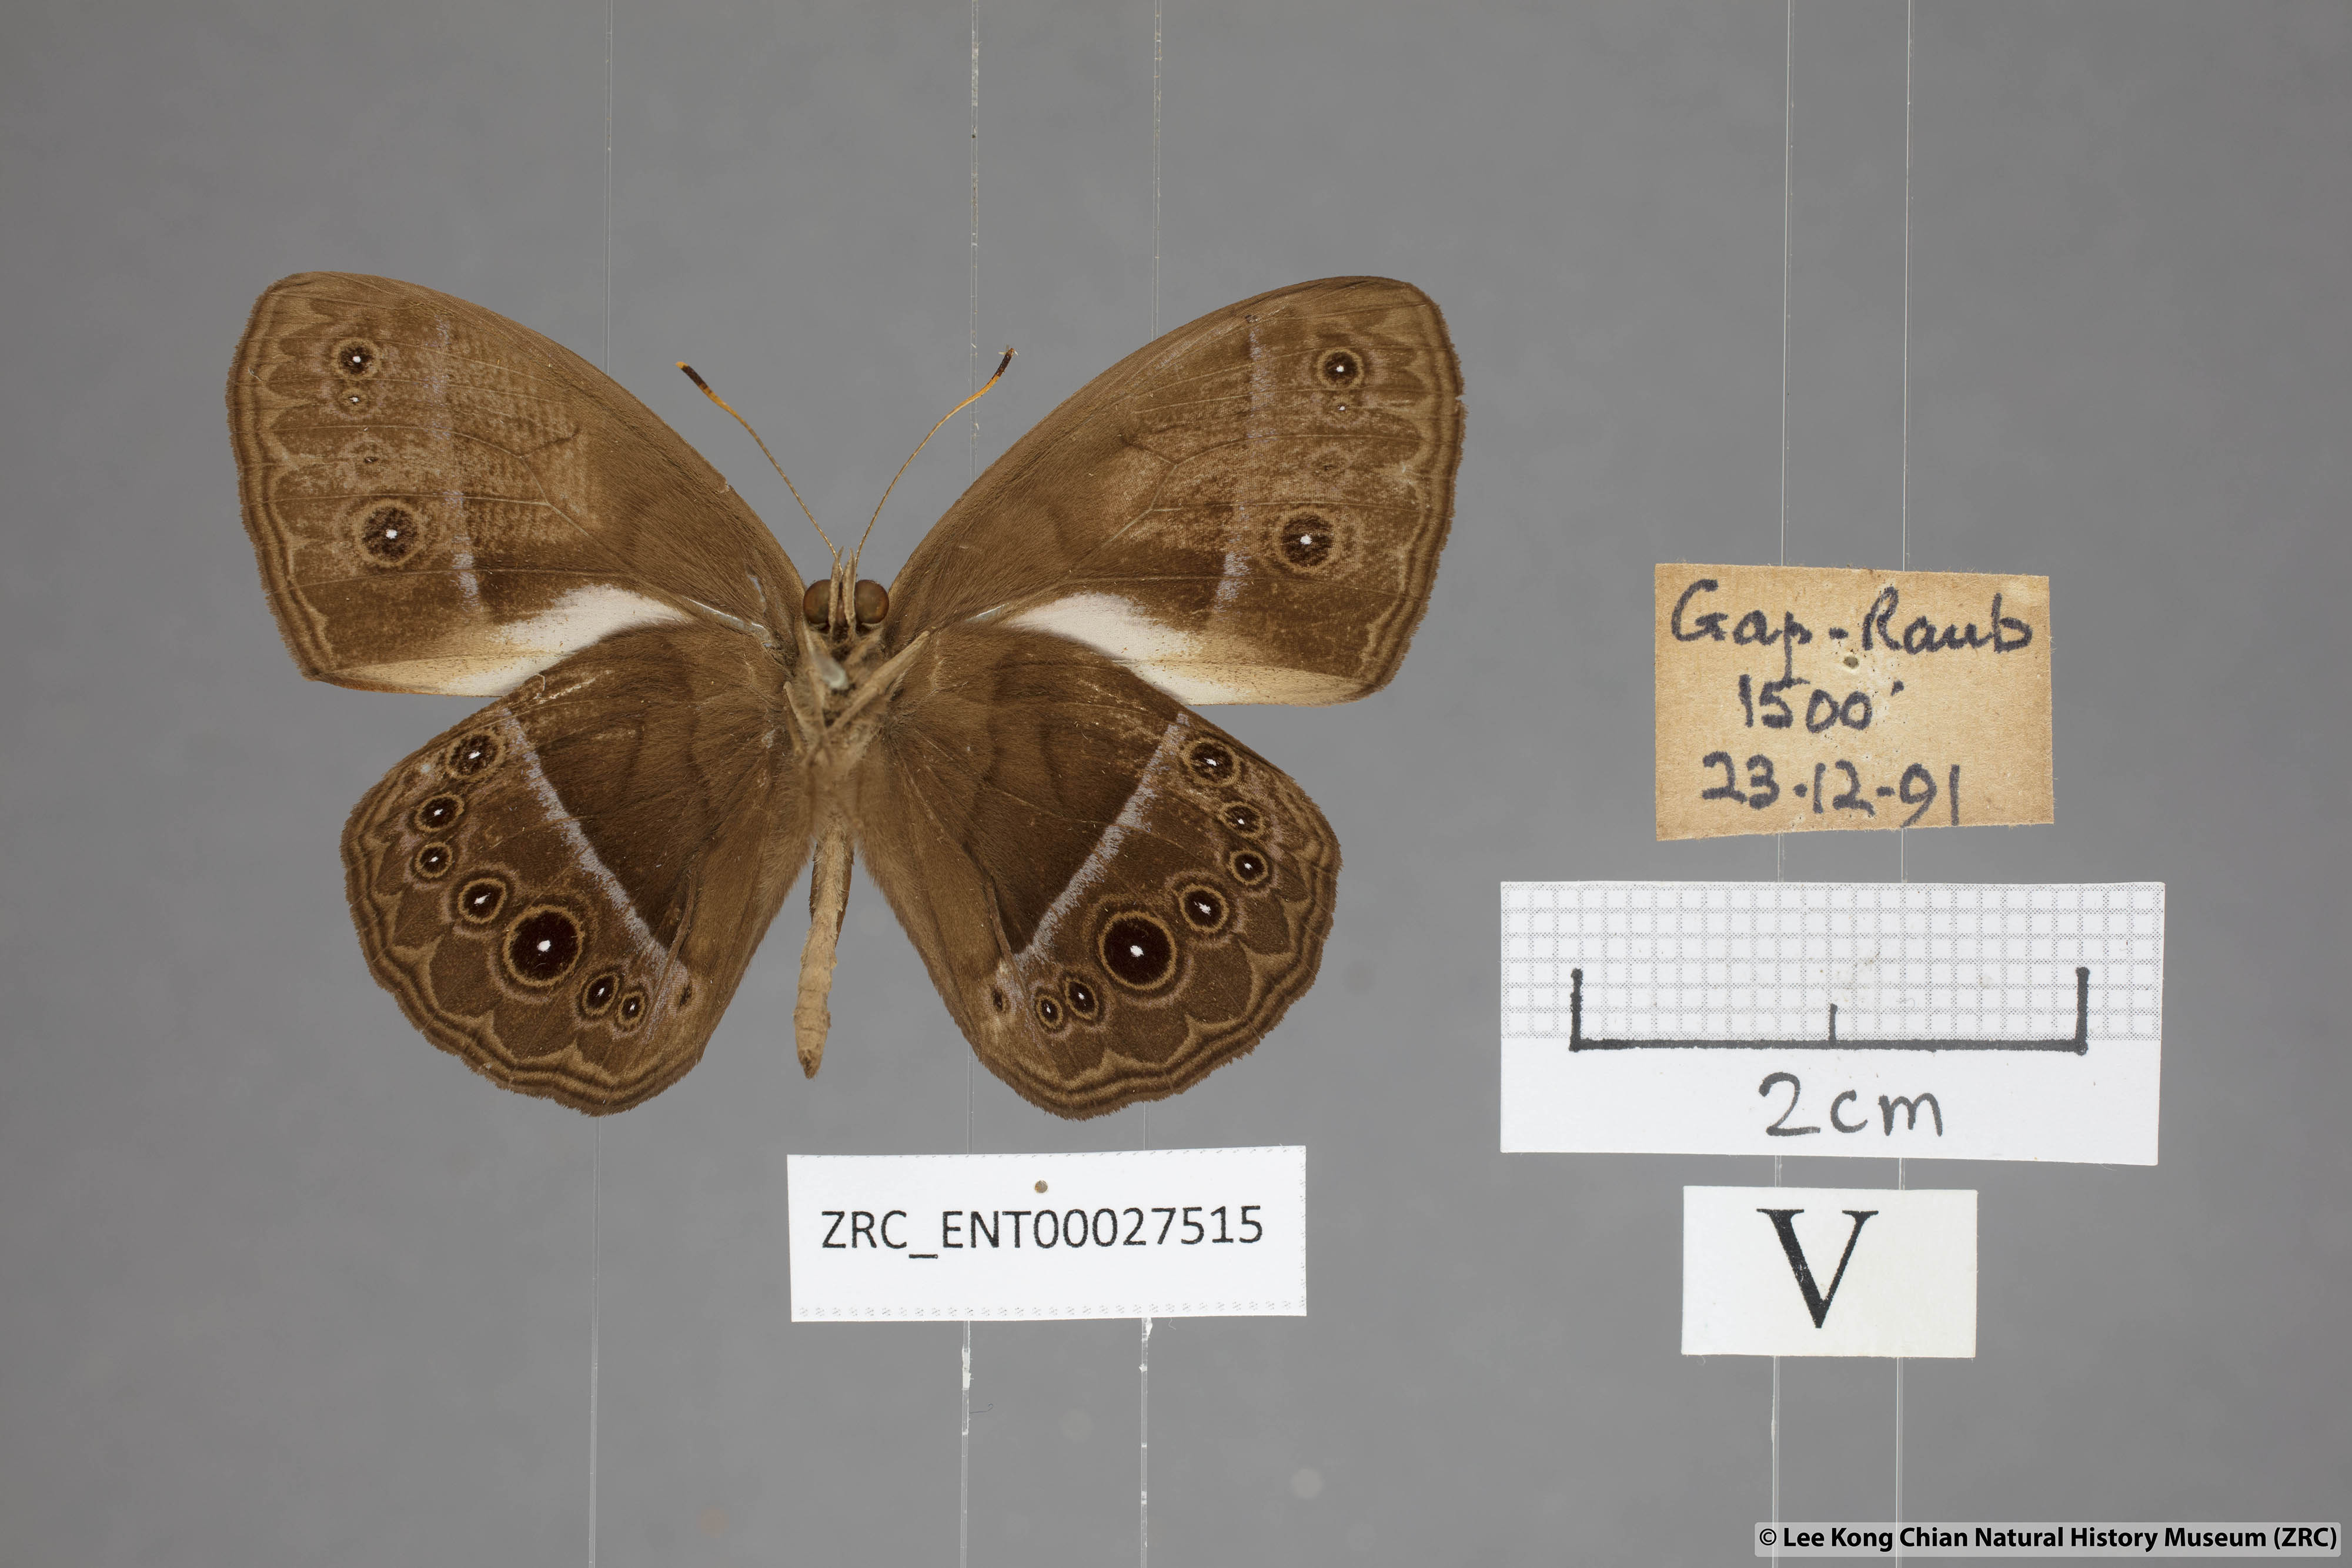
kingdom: Animalia
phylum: Arthropoda
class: Insecta
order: Lepidoptera
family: Nymphalidae
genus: Mycalesis
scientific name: Mycalesis oroatis
